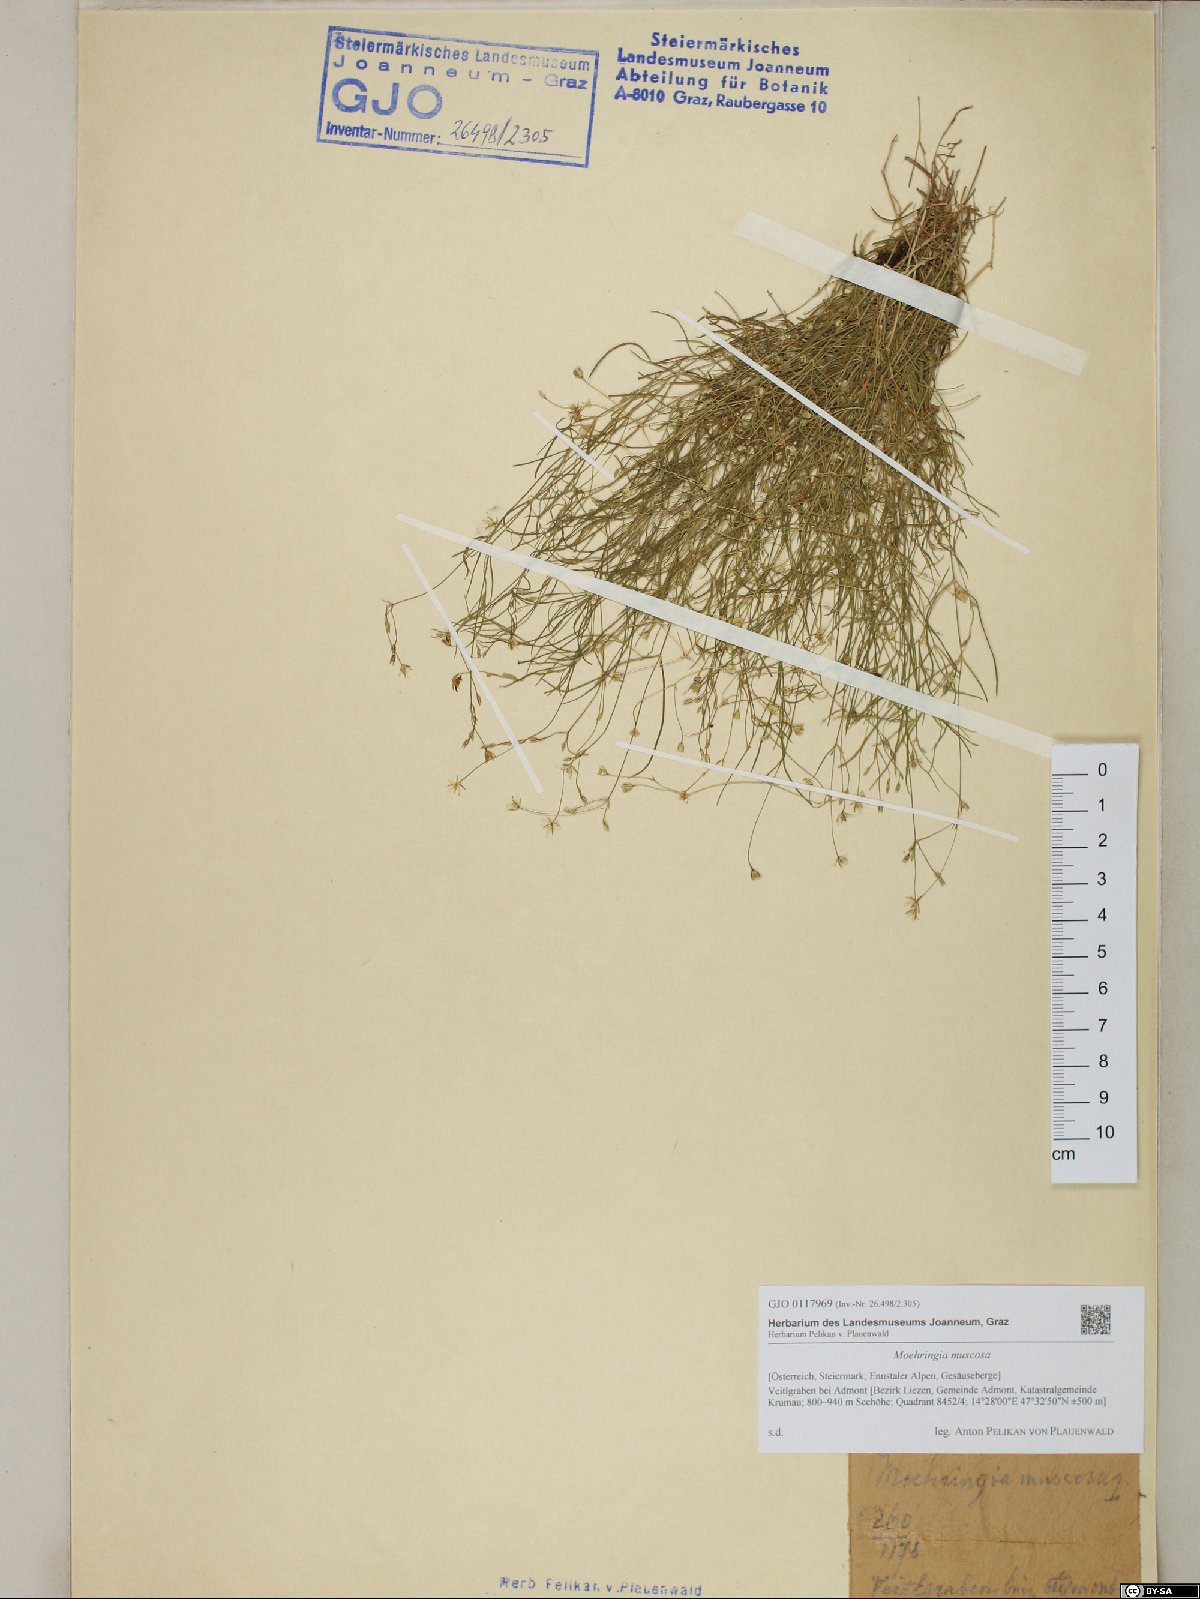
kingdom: Plantae
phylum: Tracheophyta
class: Magnoliopsida
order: Caryophyllales
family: Caryophyllaceae
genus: Moehringia
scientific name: Moehringia muscosa
